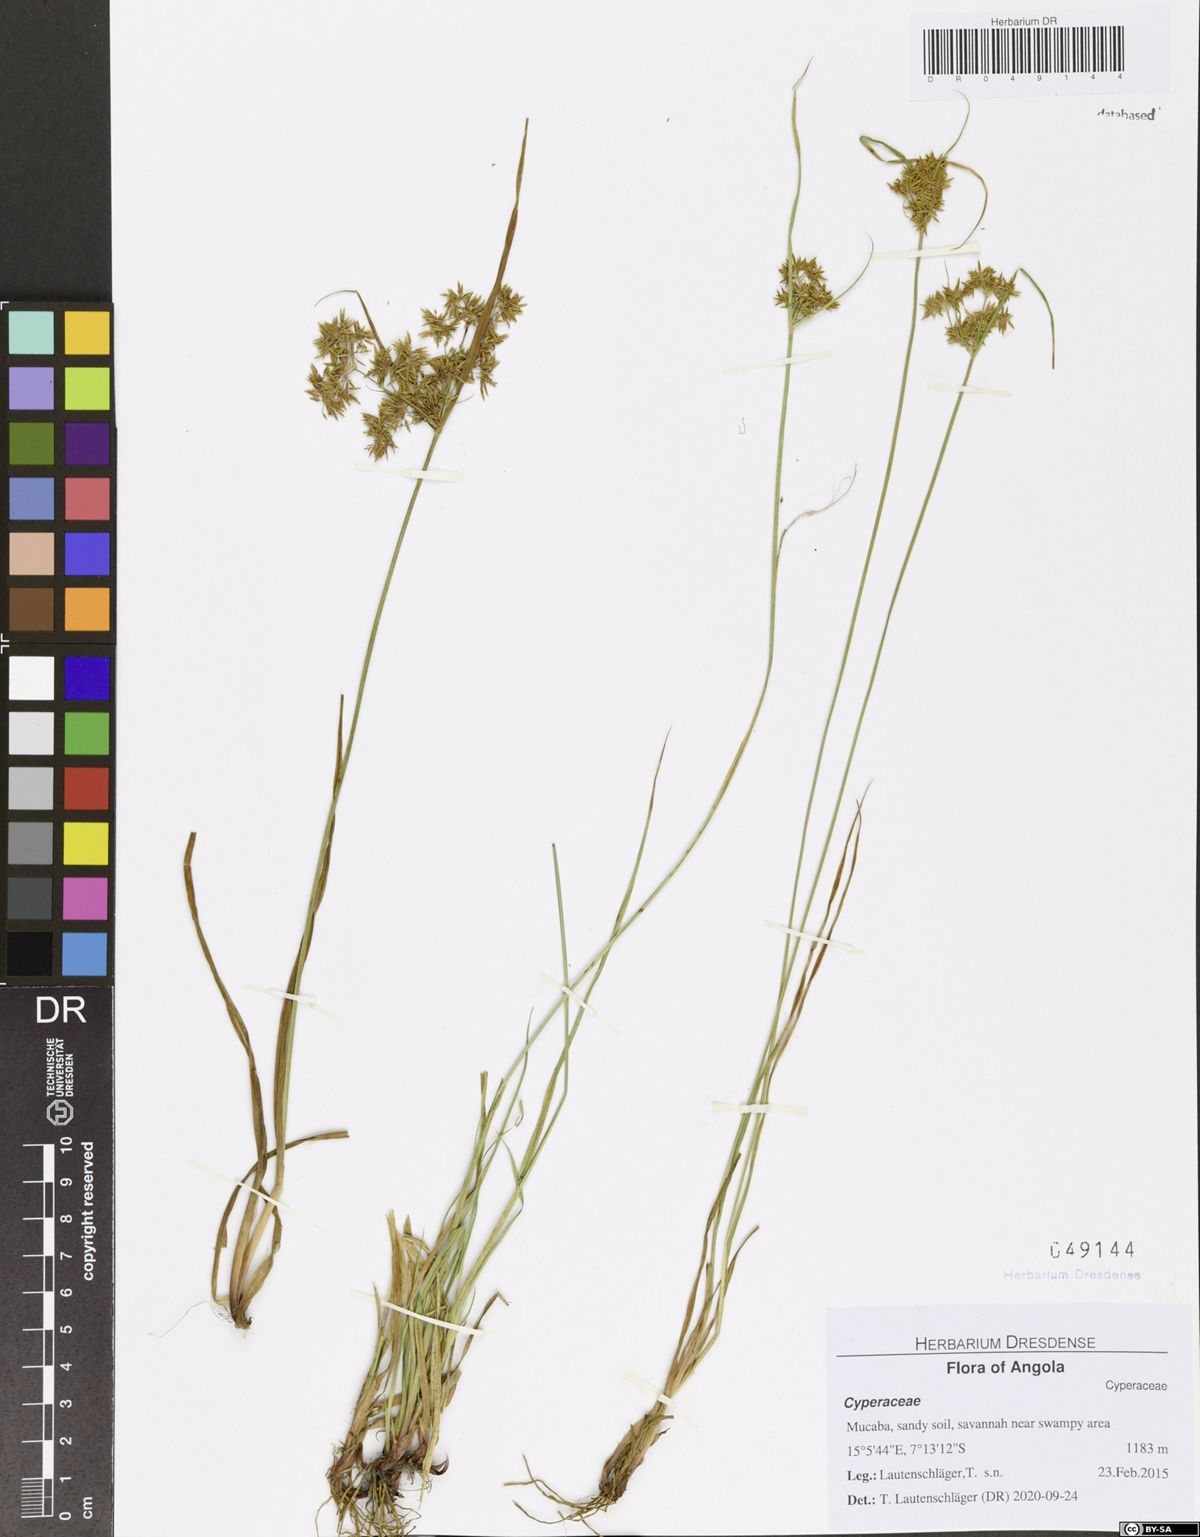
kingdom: Plantae
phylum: Tracheophyta
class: Liliopsida
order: Poales
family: Cyperaceae
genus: Cyperus
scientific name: Cyperus kipasensis
